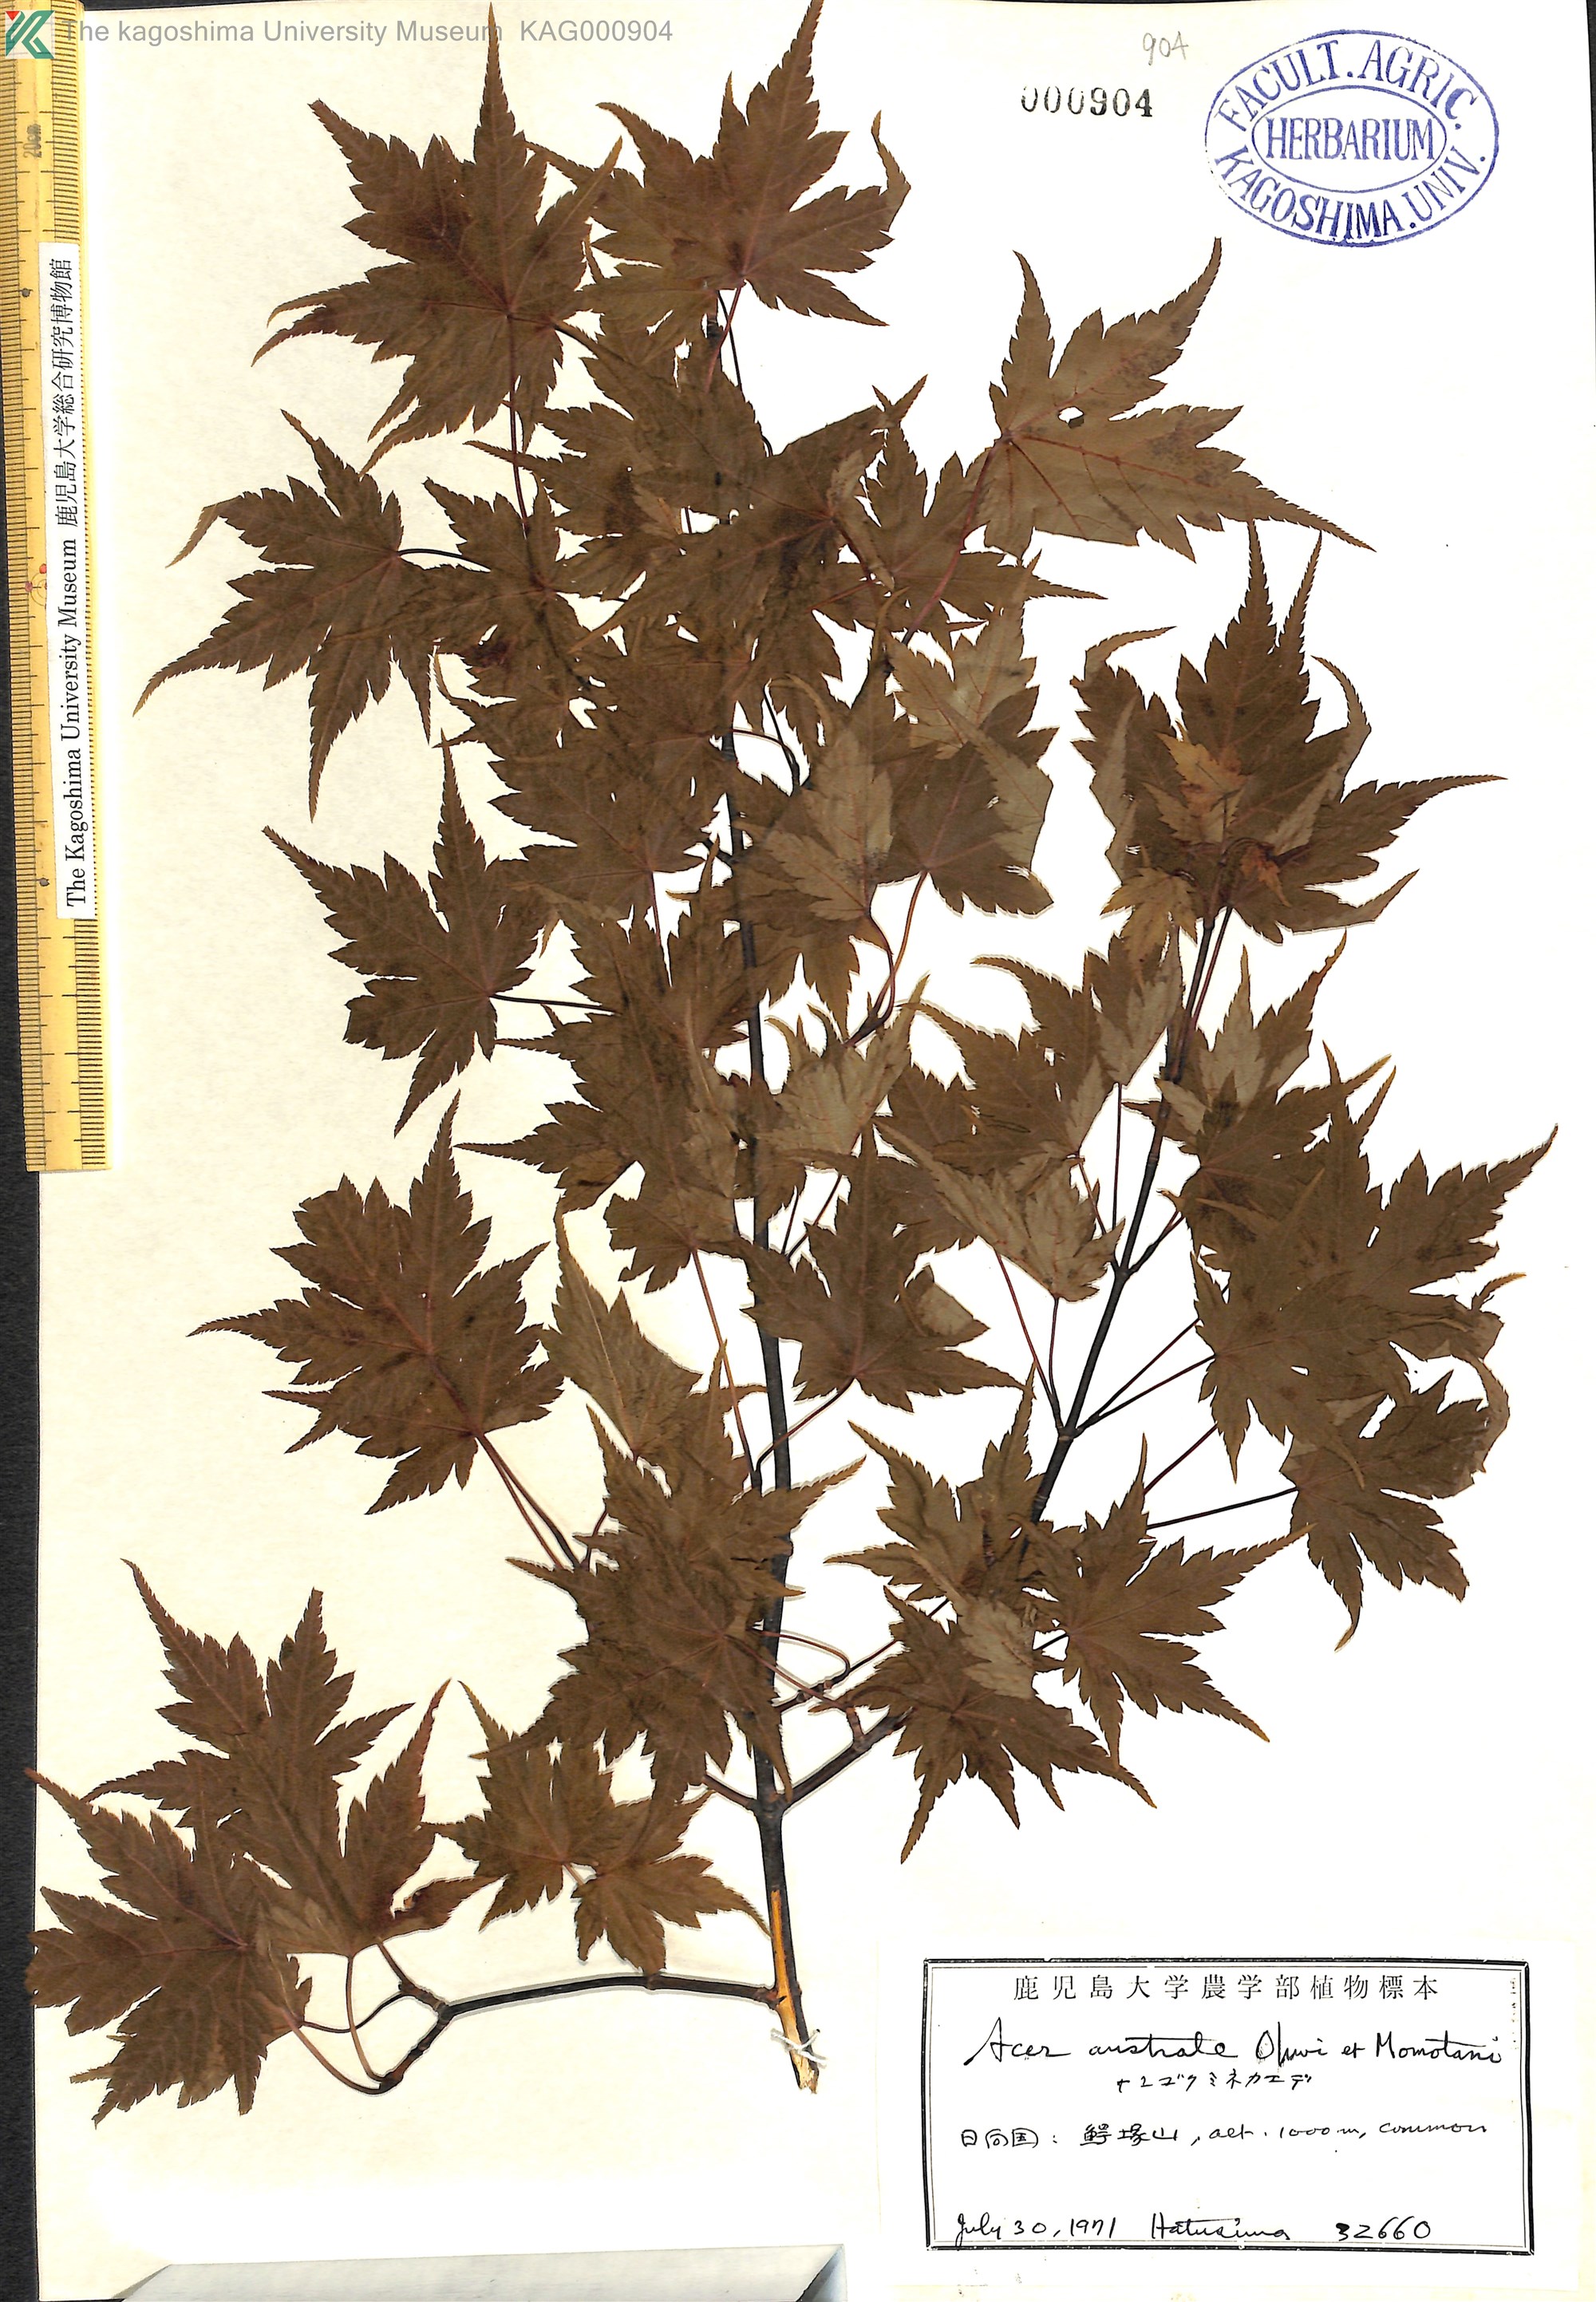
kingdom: Plantae
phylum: Tracheophyta
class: Magnoliopsida
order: Sapindales
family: Sapindaceae
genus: Acer
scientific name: Acer tschonoskii
